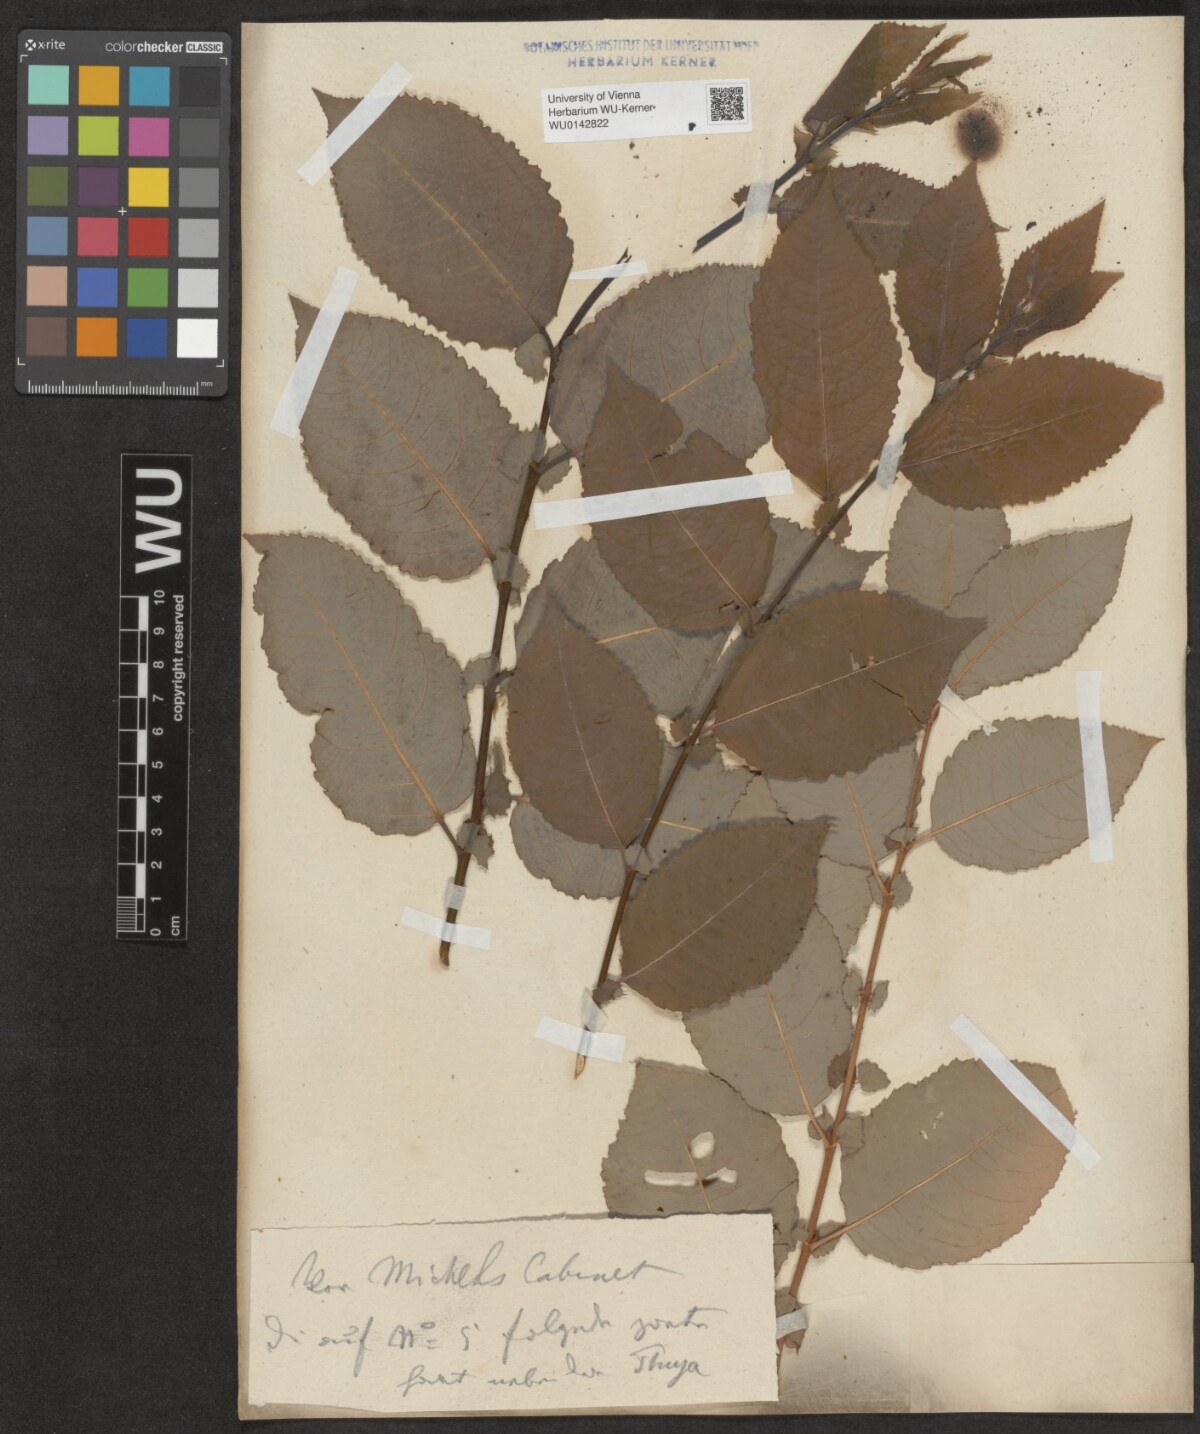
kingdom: Plantae
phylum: Tracheophyta
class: Magnoliopsida
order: Malpighiales
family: Salicaceae
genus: Salix
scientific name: Salix macrophylla
